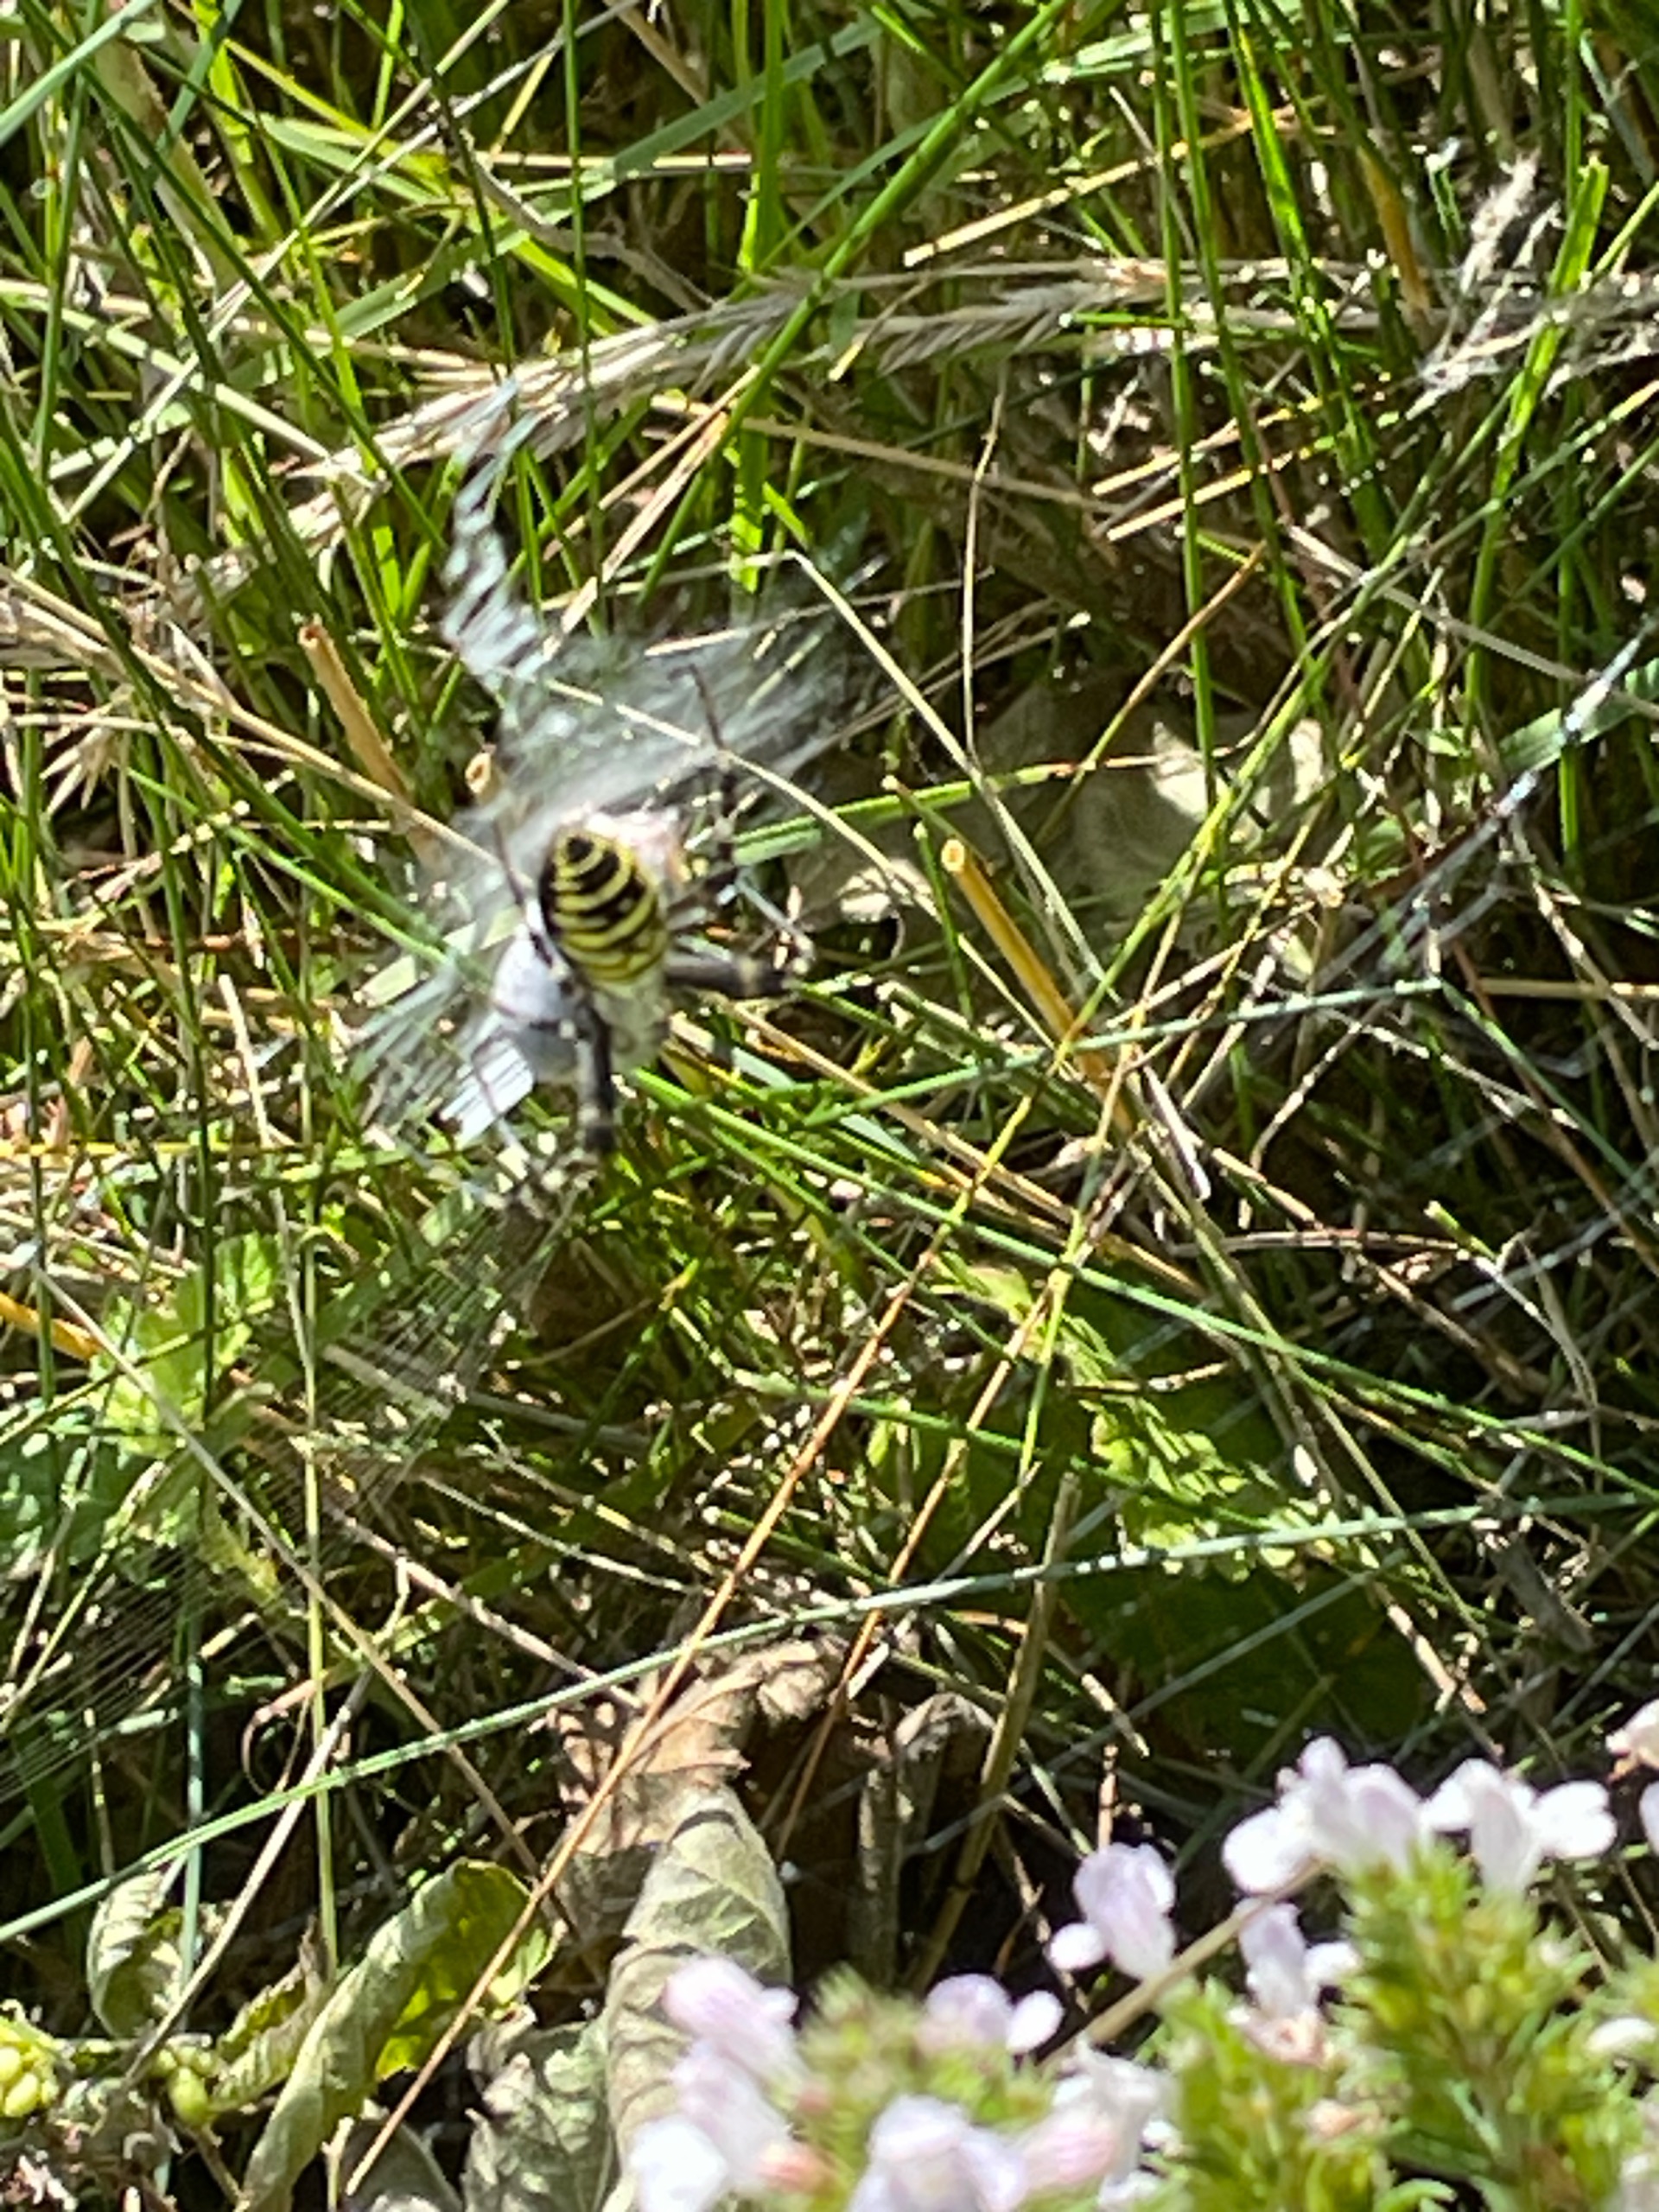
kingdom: Animalia
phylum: Arthropoda
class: Arachnida
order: Araneae
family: Araneidae
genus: Argiope
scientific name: Argiope bruennichi
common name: Hvepseedderkop
